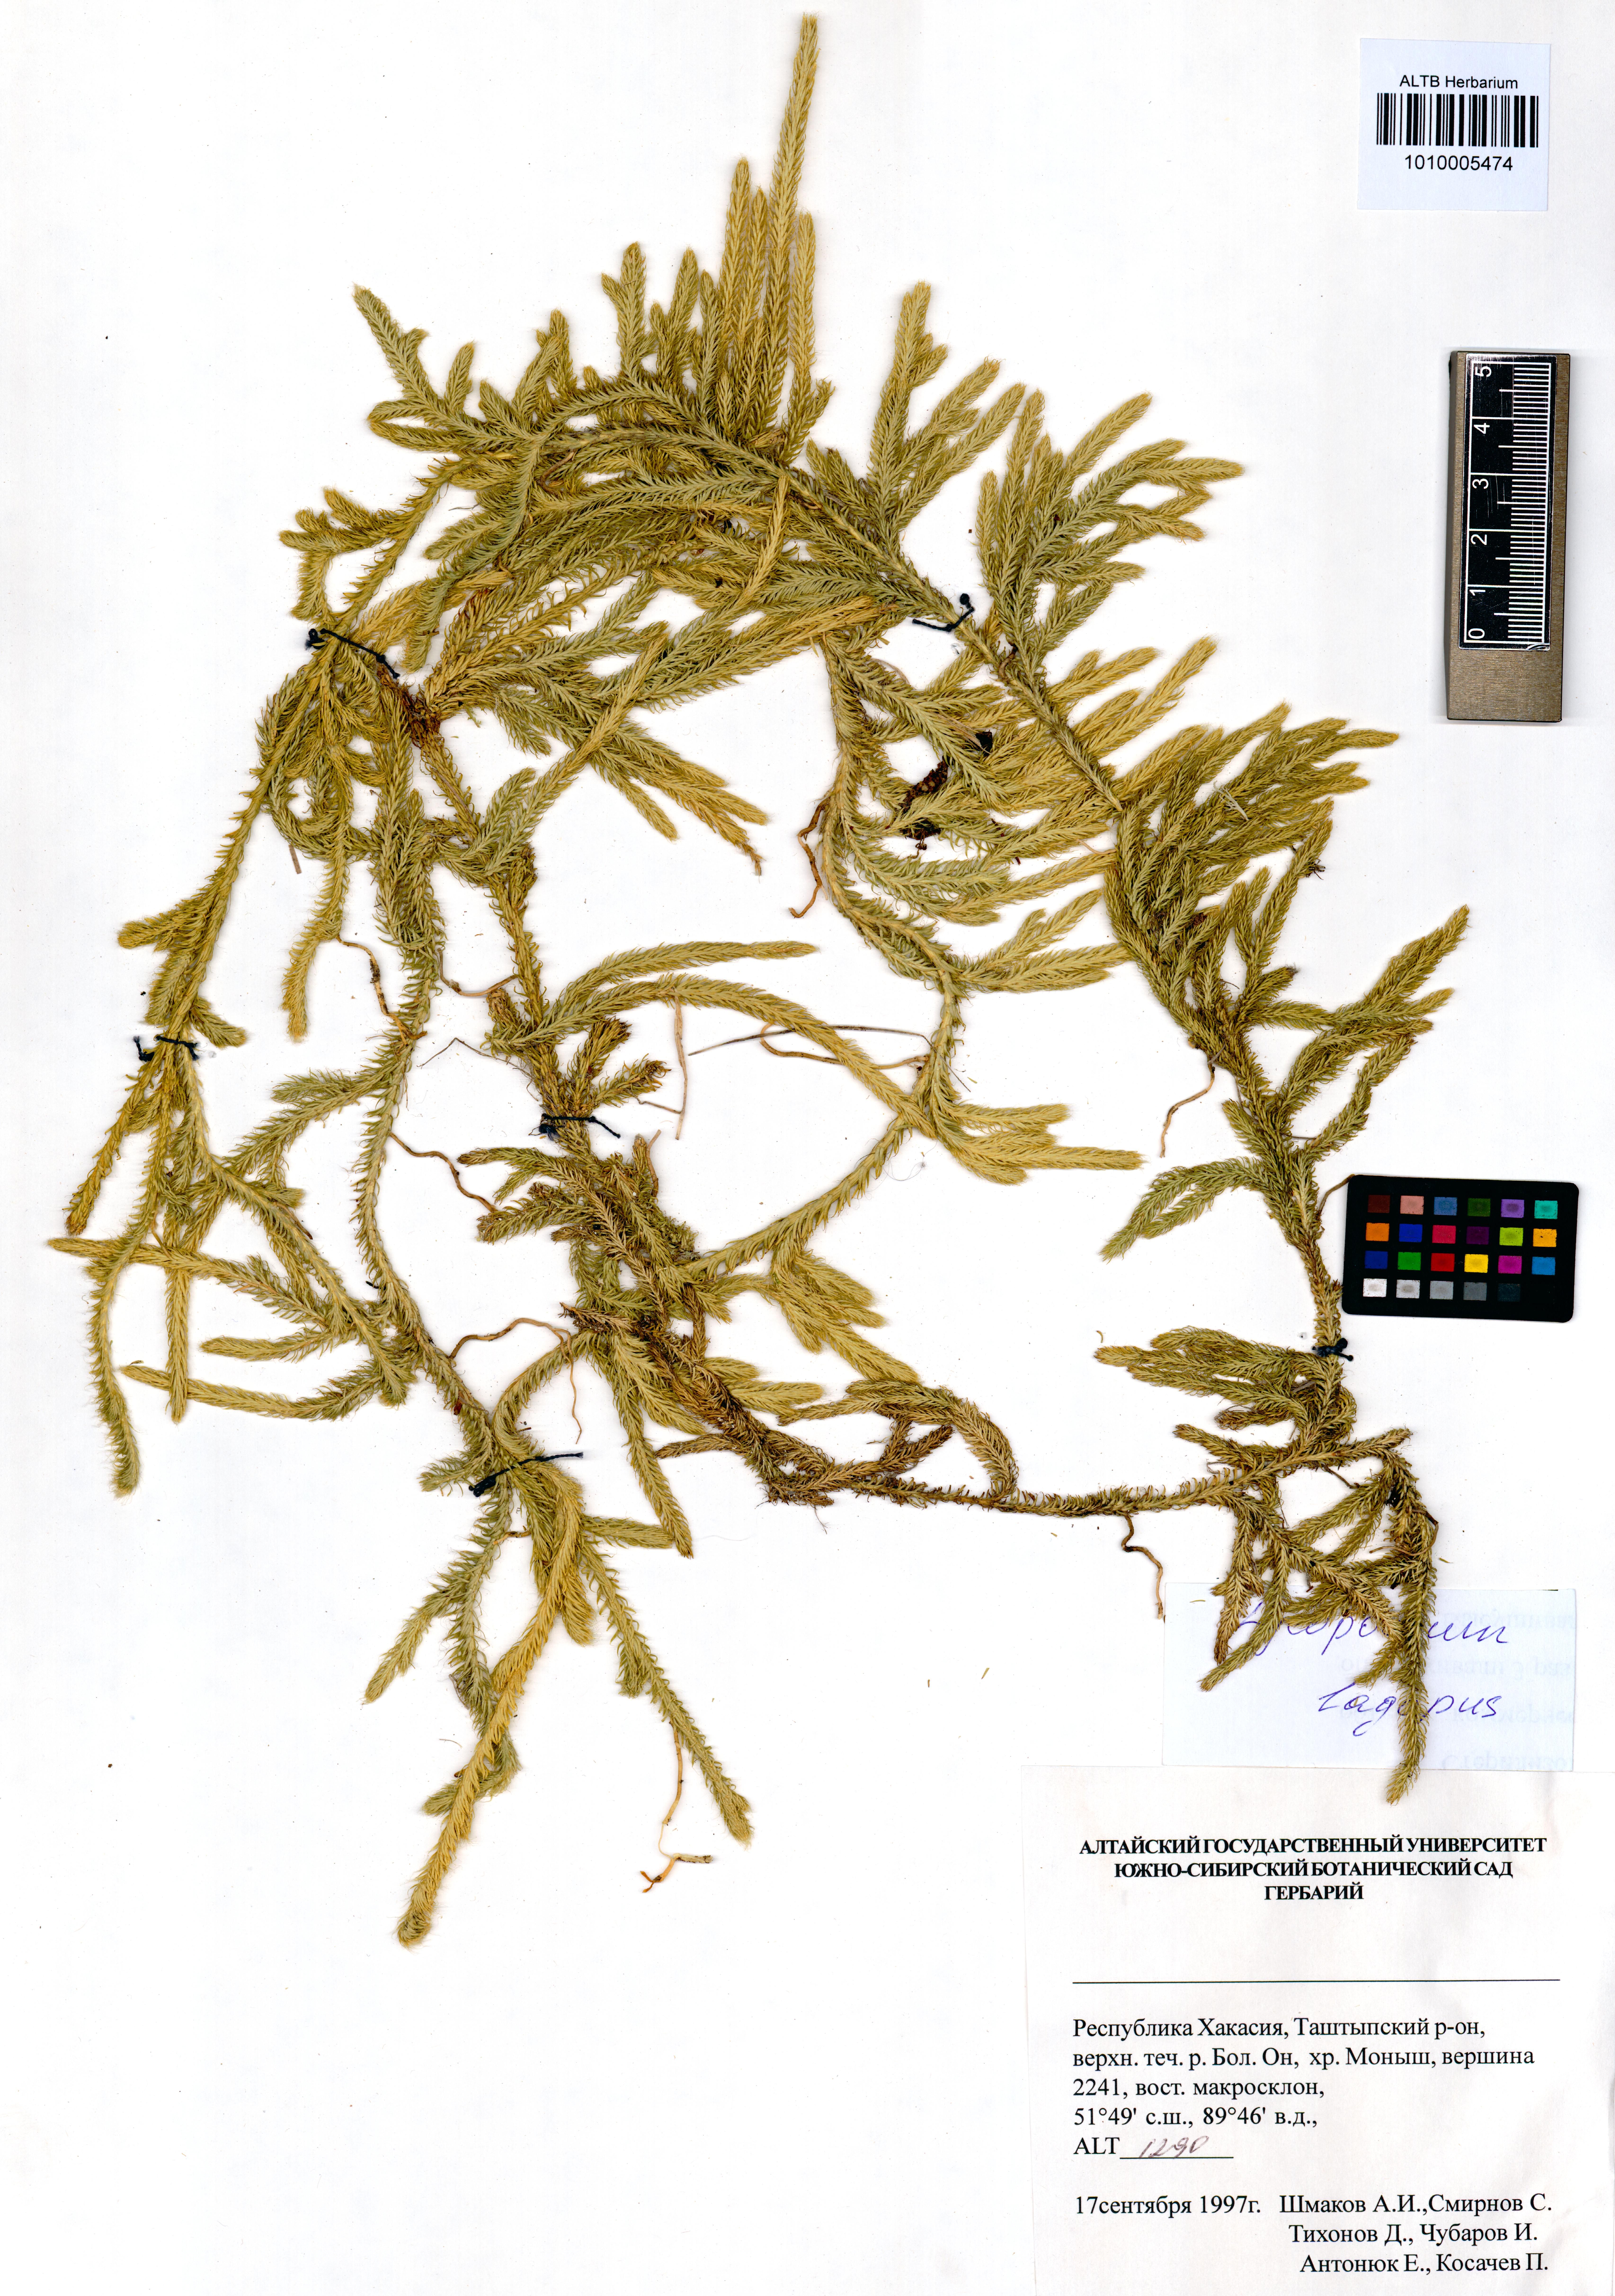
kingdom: Plantae
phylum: Tracheophyta
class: Lycopodiopsida
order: Lycopodiales
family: Lycopodiaceae
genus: Lycopodium
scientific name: Lycopodium lagopus
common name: One-cone clubmoss
